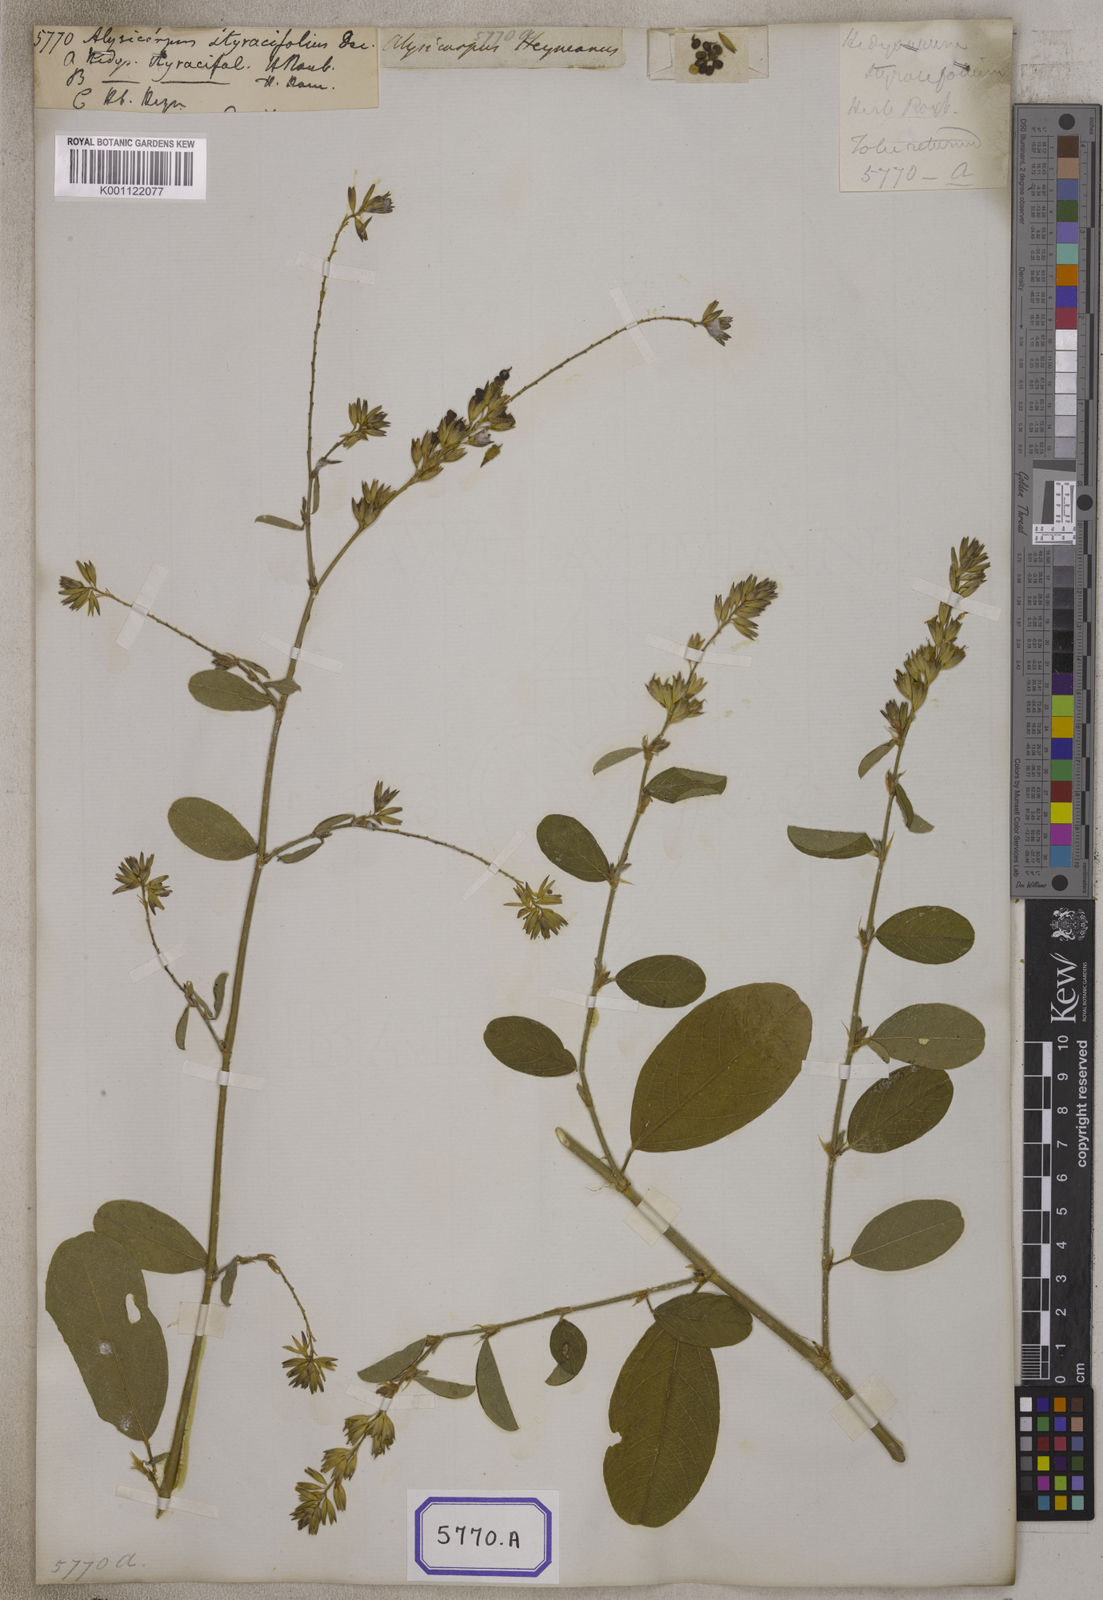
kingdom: Plantae
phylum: Tracheophyta
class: Magnoliopsida
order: Fabales
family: Fabaceae
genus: Alysicarpus
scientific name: Alysicarpus scariosus
